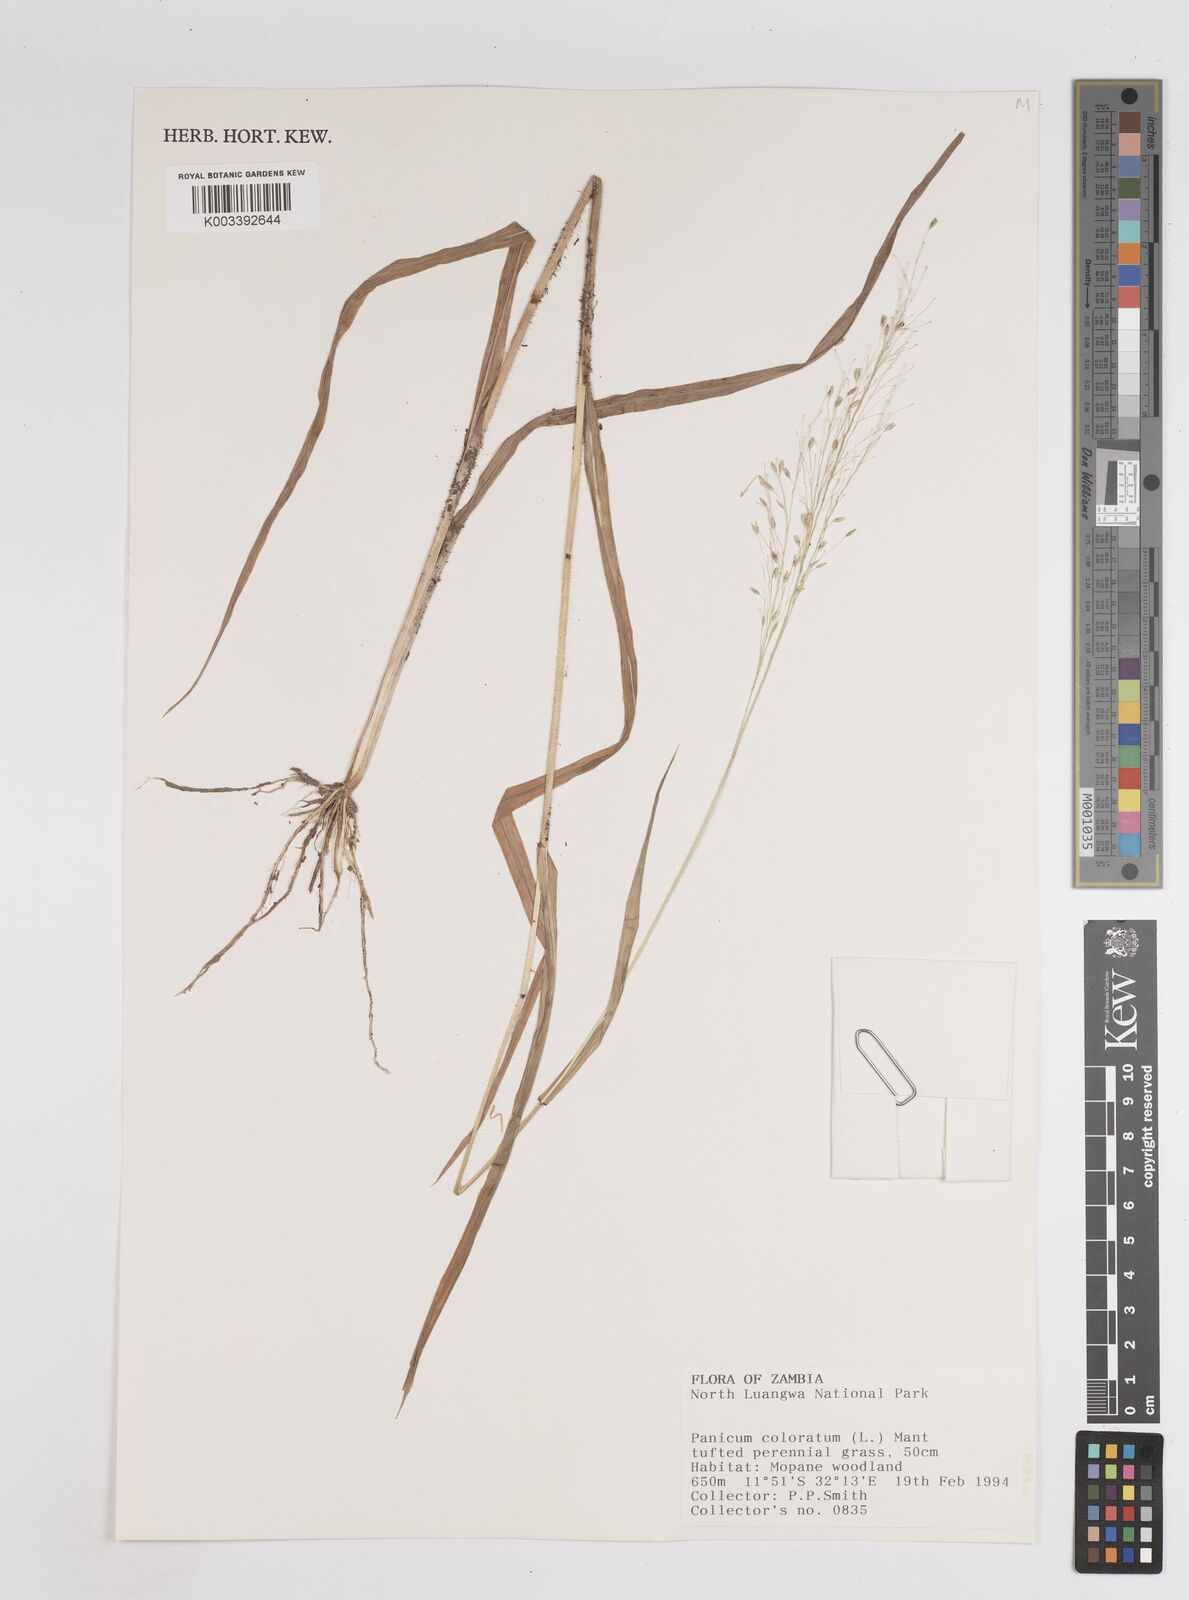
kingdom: Plantae
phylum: Tracheophyta
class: Liliopsida
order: Poales
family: Poaceae
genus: Panicum
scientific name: Panicum
